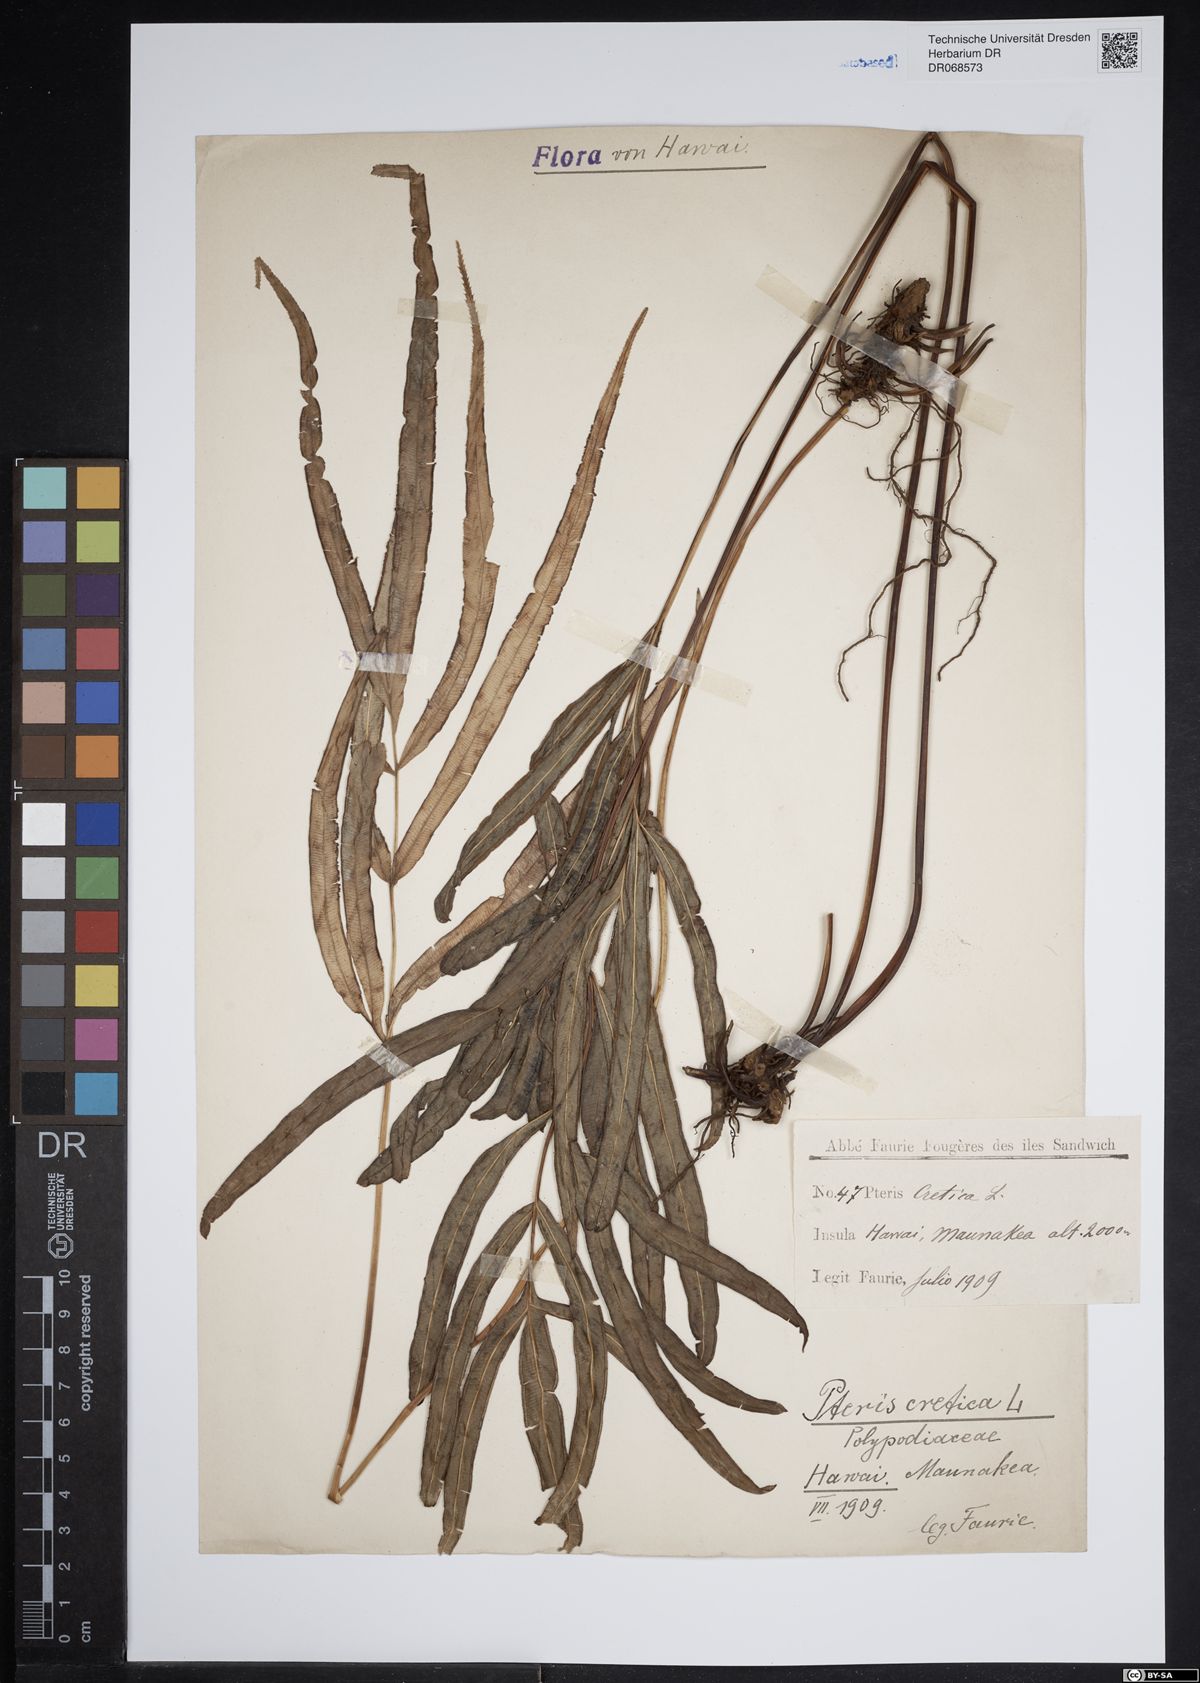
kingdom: Plantae
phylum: Tracheophyta
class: Polypodiopsida
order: Polypodiales
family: Pteridaceae
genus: Pteris
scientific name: Pteris cretica
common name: Ribbon fern
